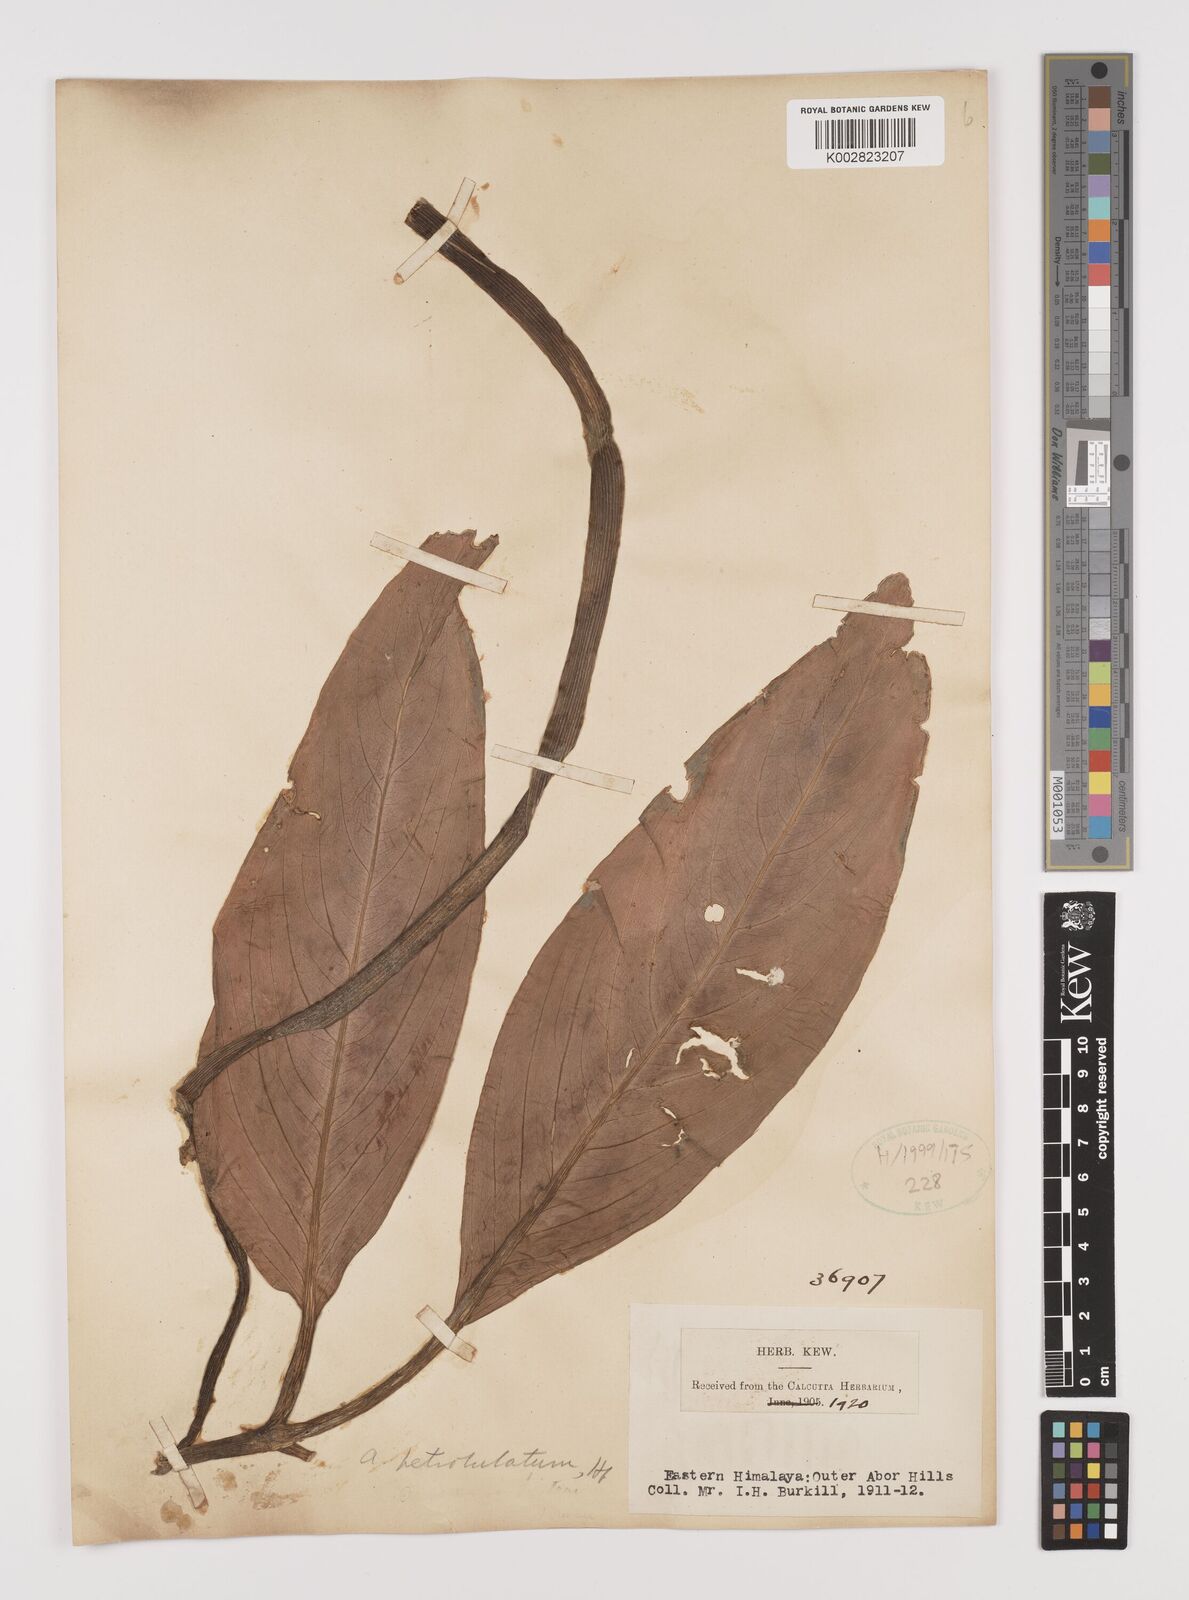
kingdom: Plantae
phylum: Tracheophyta
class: Liliopsida
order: Alismatales
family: Araceae
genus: Arisaema
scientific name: Arisaema petiolulatum
